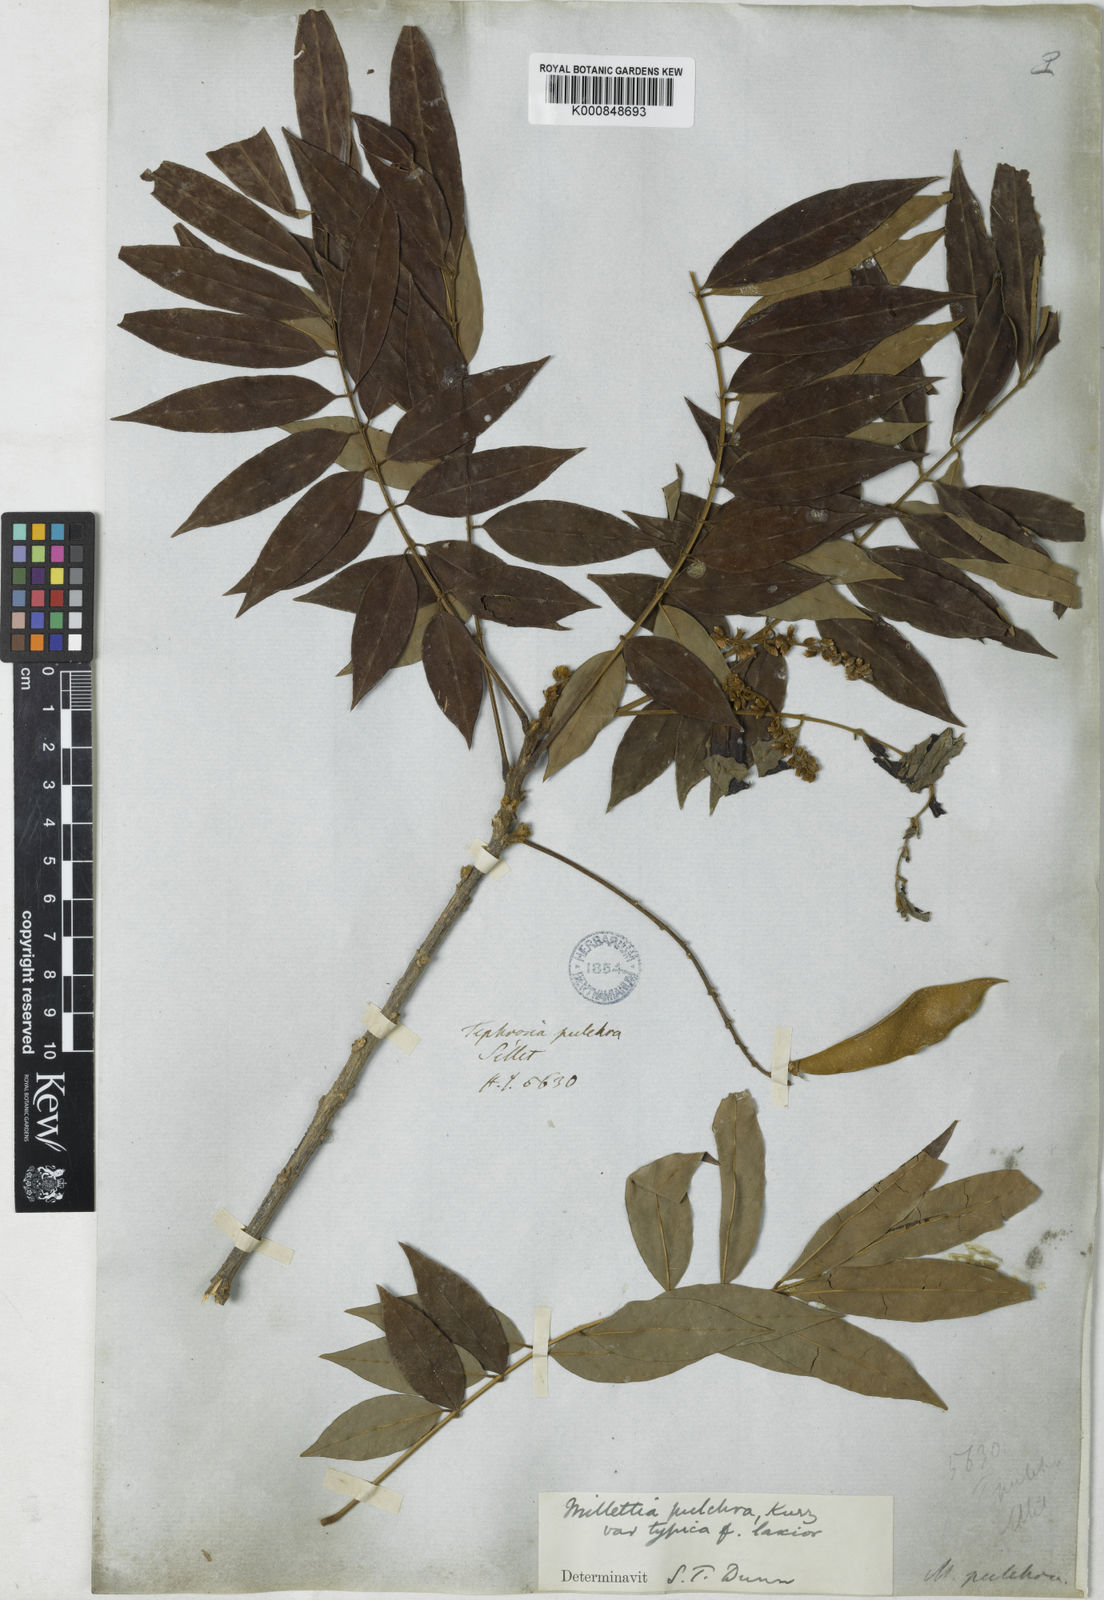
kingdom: Plantae
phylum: Tracheophyta
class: Magnoliopsida
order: Fabales
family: Fabaceae
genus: Millettia
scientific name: Millettia pulchra
